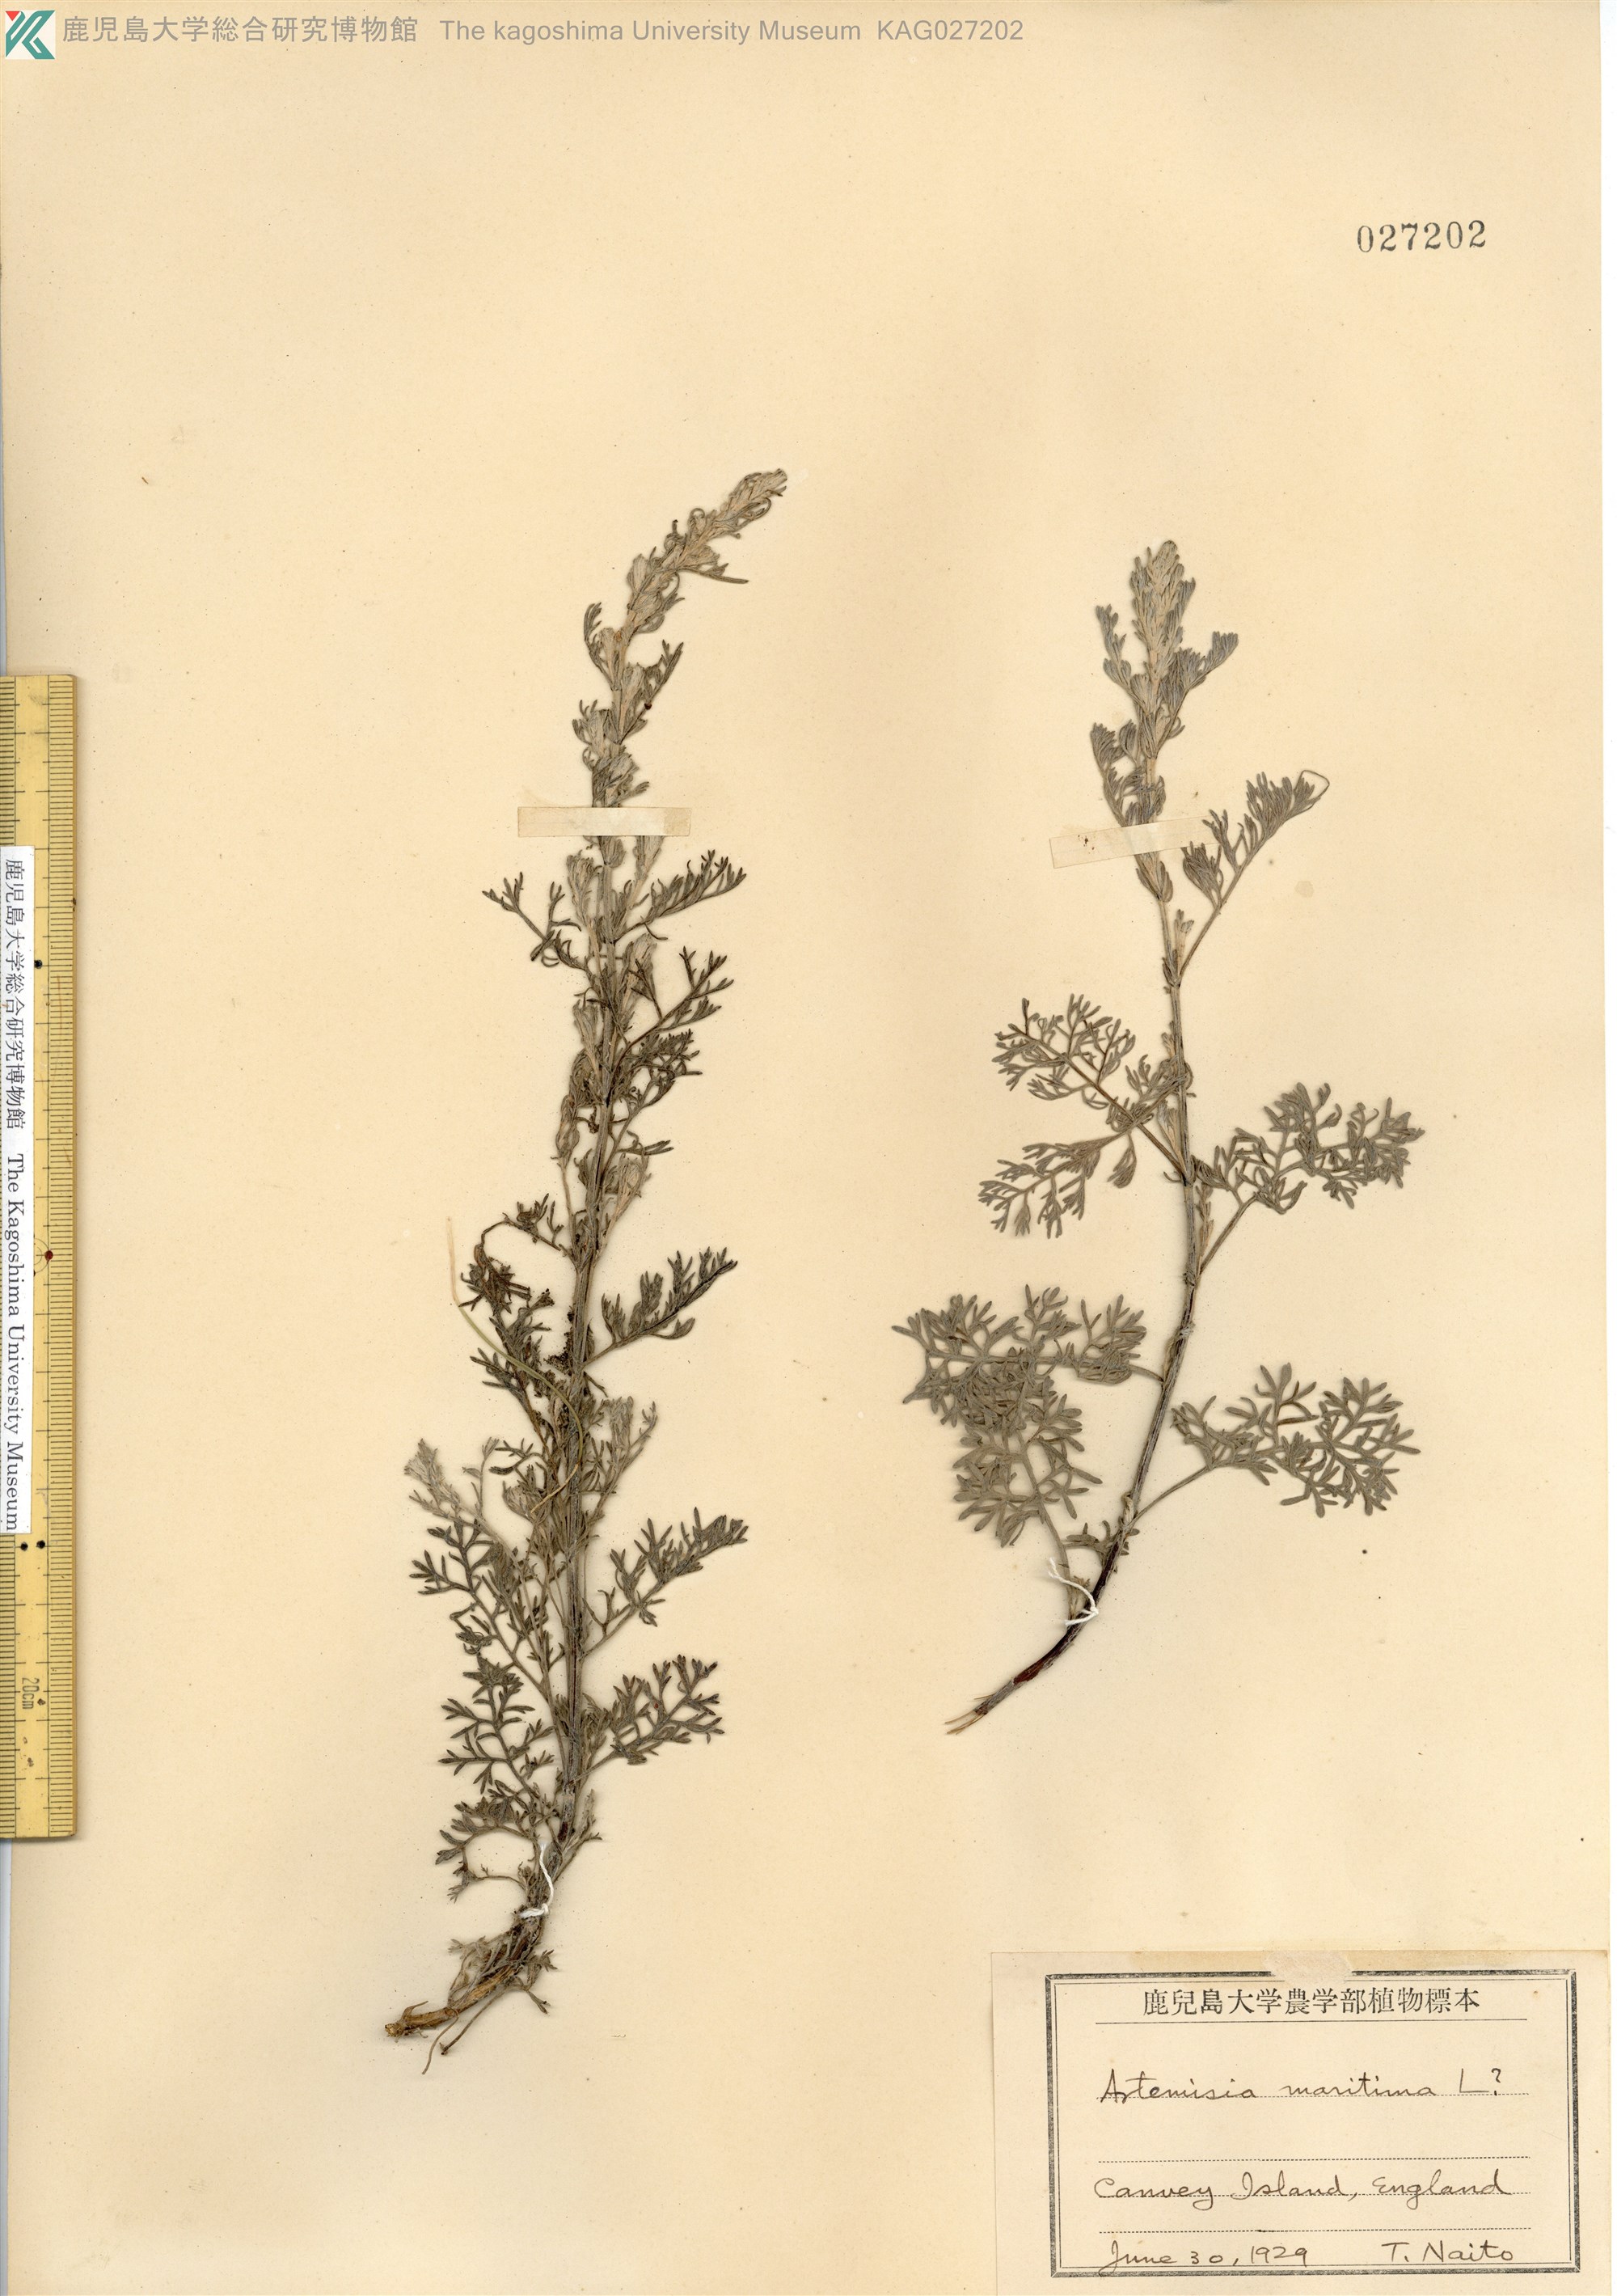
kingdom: Plantae
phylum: Tracheophyta
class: Magnoliopsida
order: Asterales
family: Asteraceae
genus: Artemisia
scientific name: Artemisia maritima
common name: Wormseed
